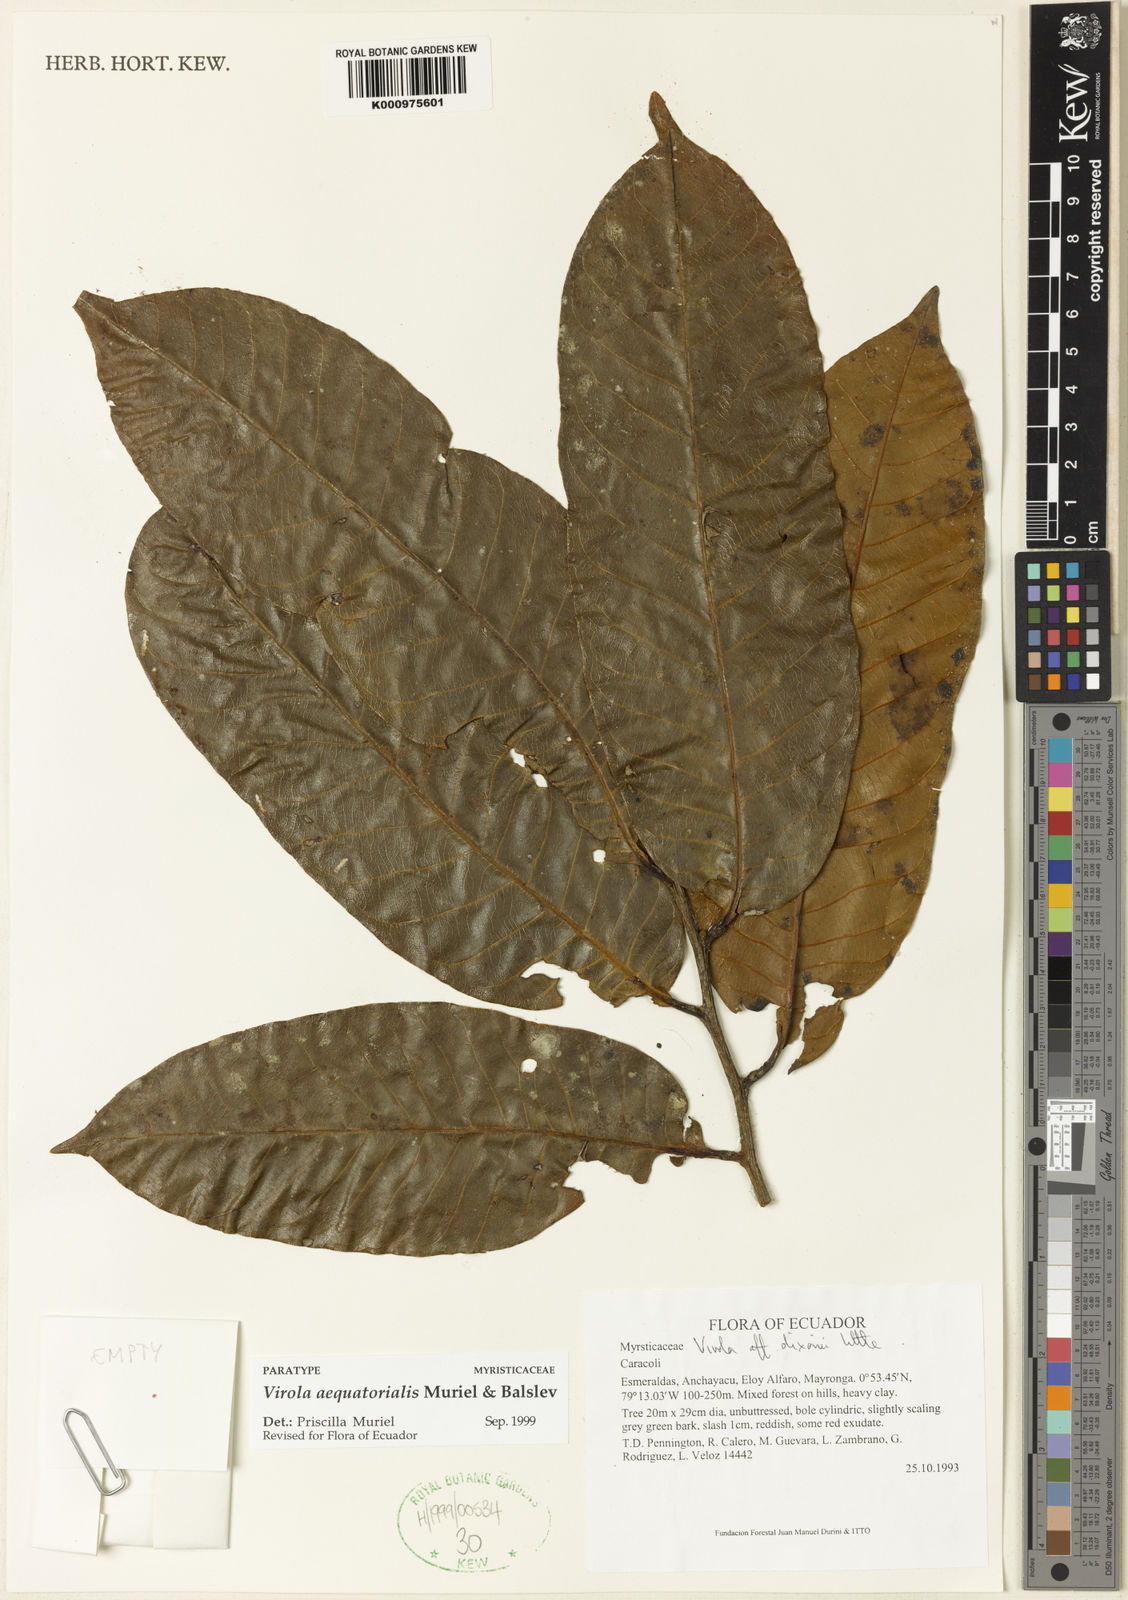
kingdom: Plantae
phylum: Tracheophyta
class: Magnoliopsida
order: Magnoliales
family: Myristicaceae
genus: Virola
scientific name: Virola aequatorialis
